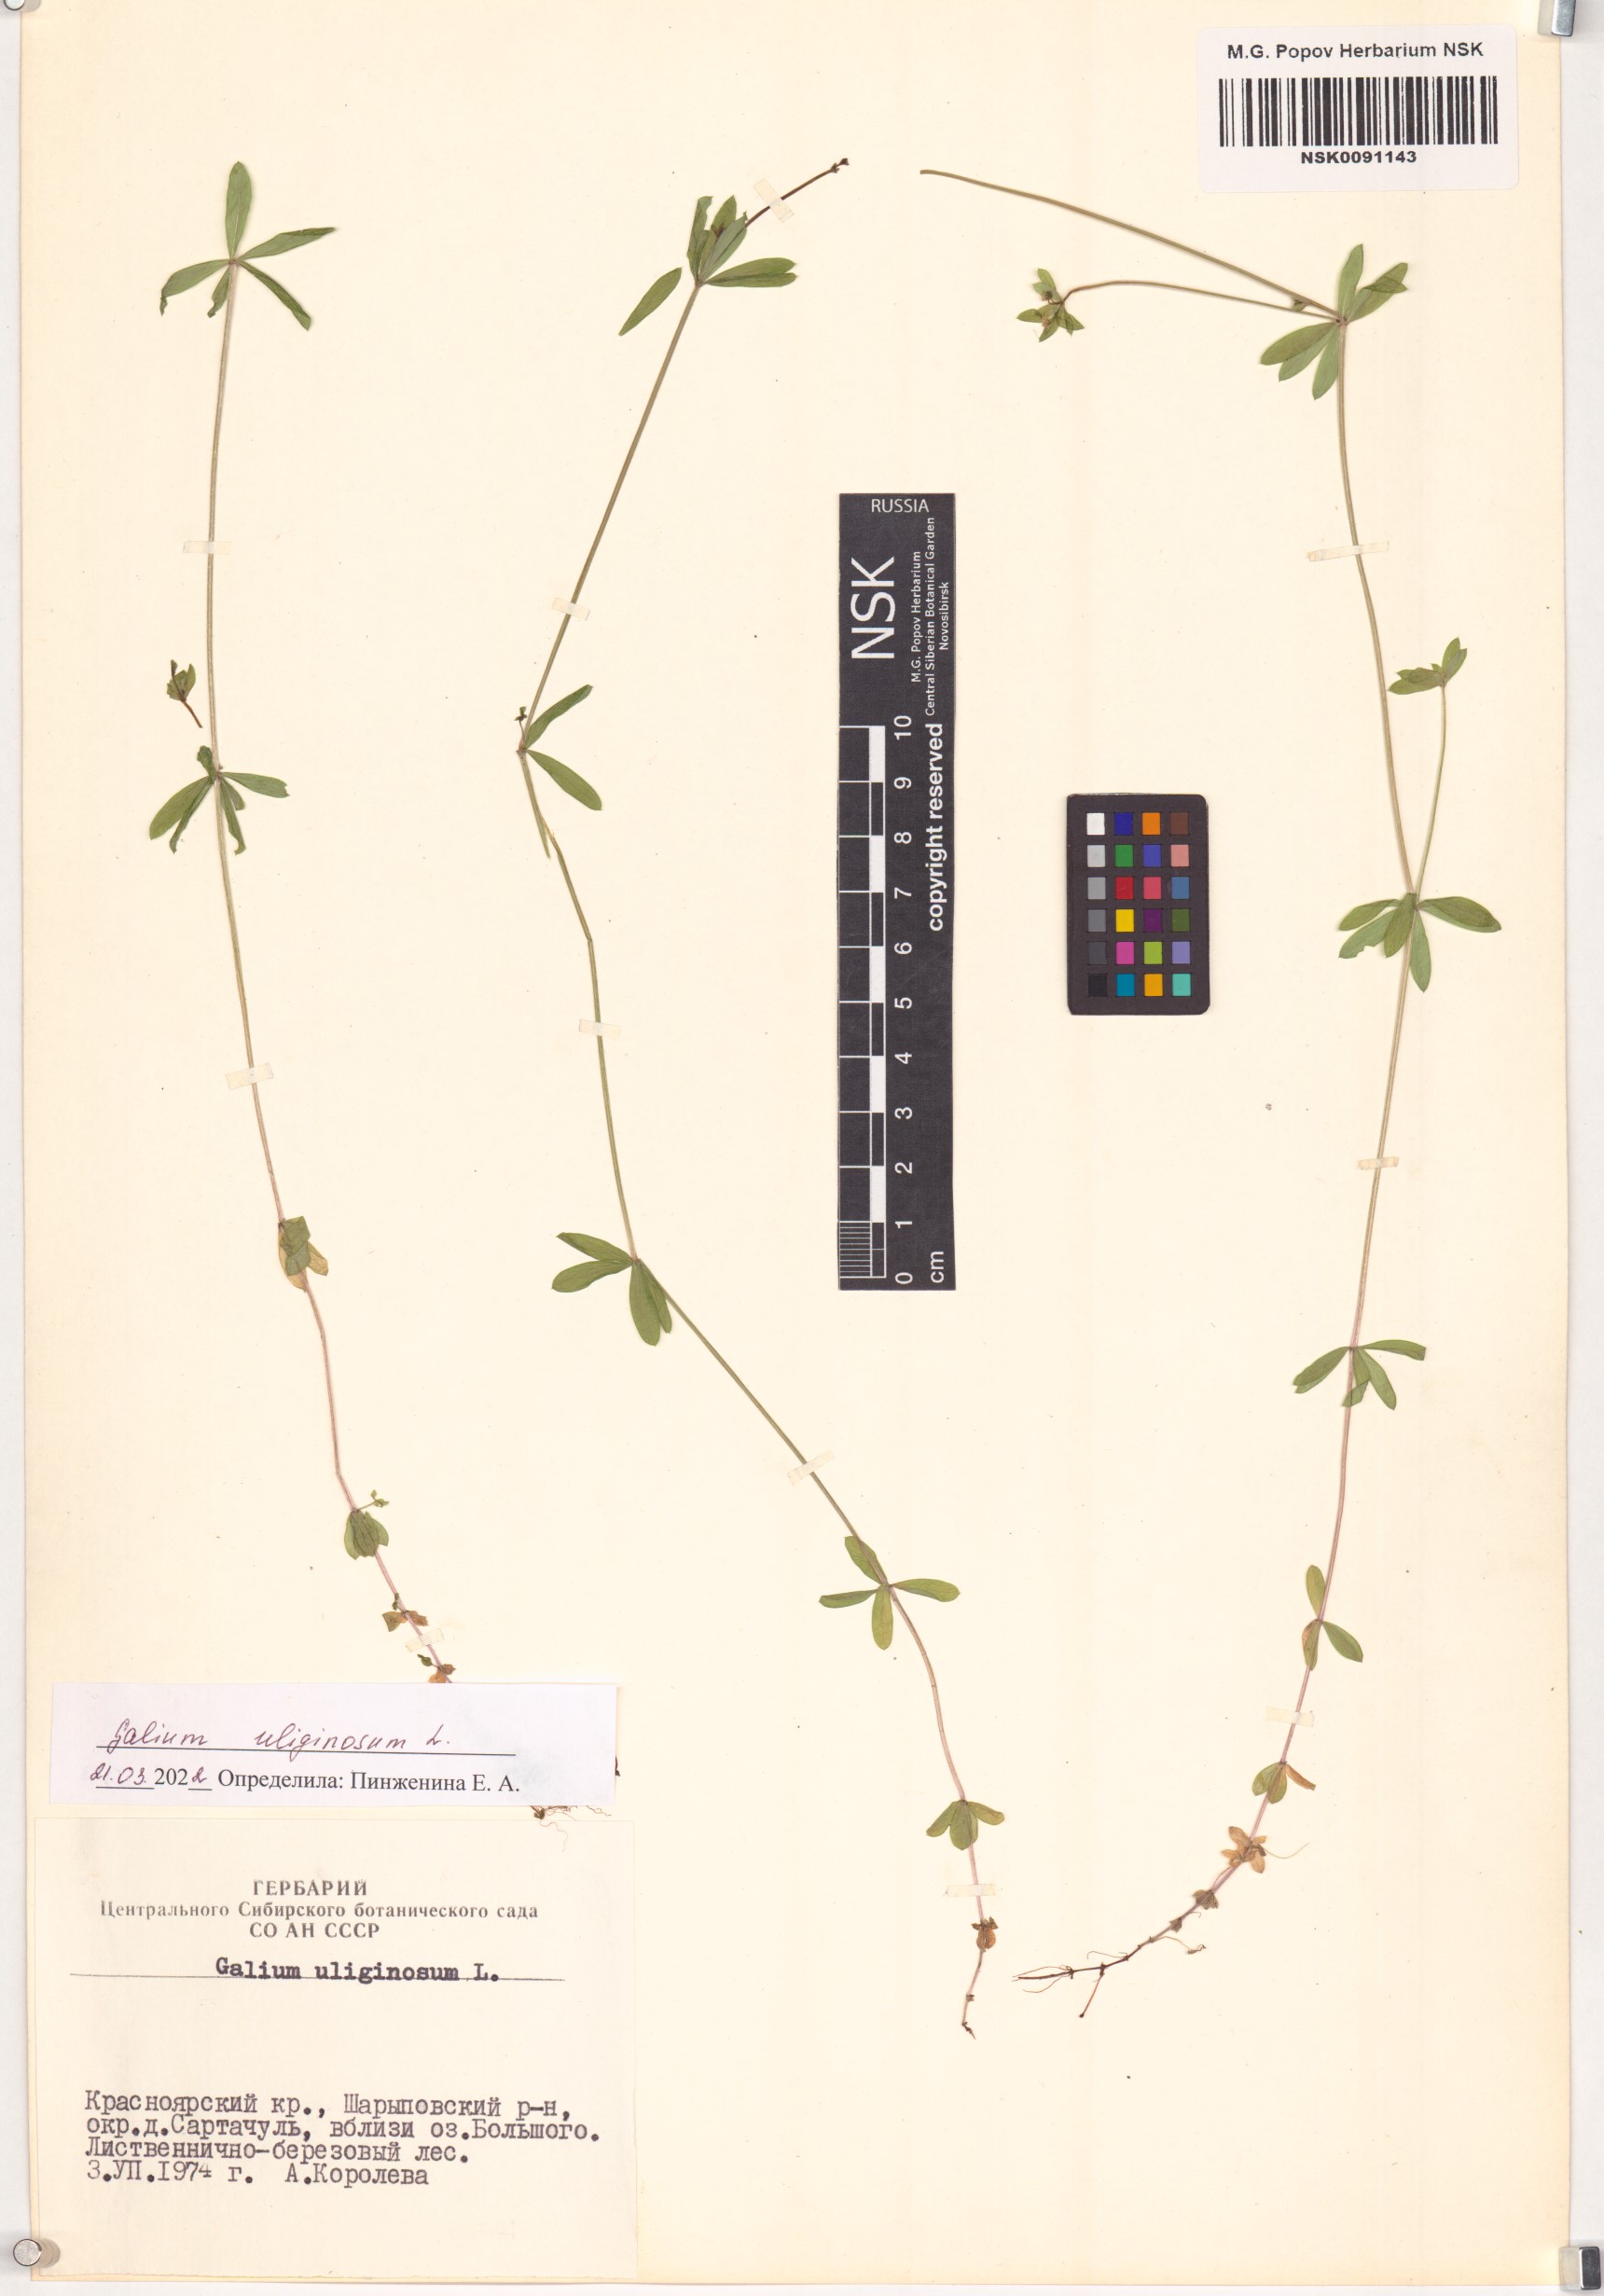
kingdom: Plantae
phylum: Tracheophyta
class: Magnoliopsida
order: Gentianales
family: Rubiaceae
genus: Galium
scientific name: Galium uliginosum
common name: Fen bedstraw
